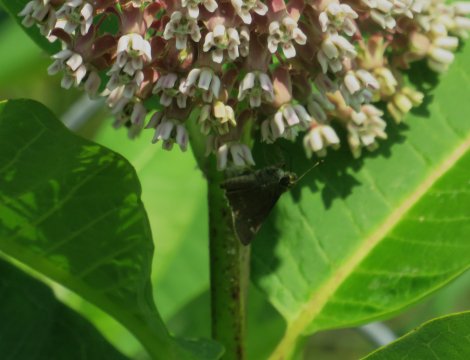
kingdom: Animalia
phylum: Arthropoda
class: Insecta
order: Lepidoptera
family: Hesperiidae
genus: Vernia
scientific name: Vernia verna
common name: Little Glassywing
